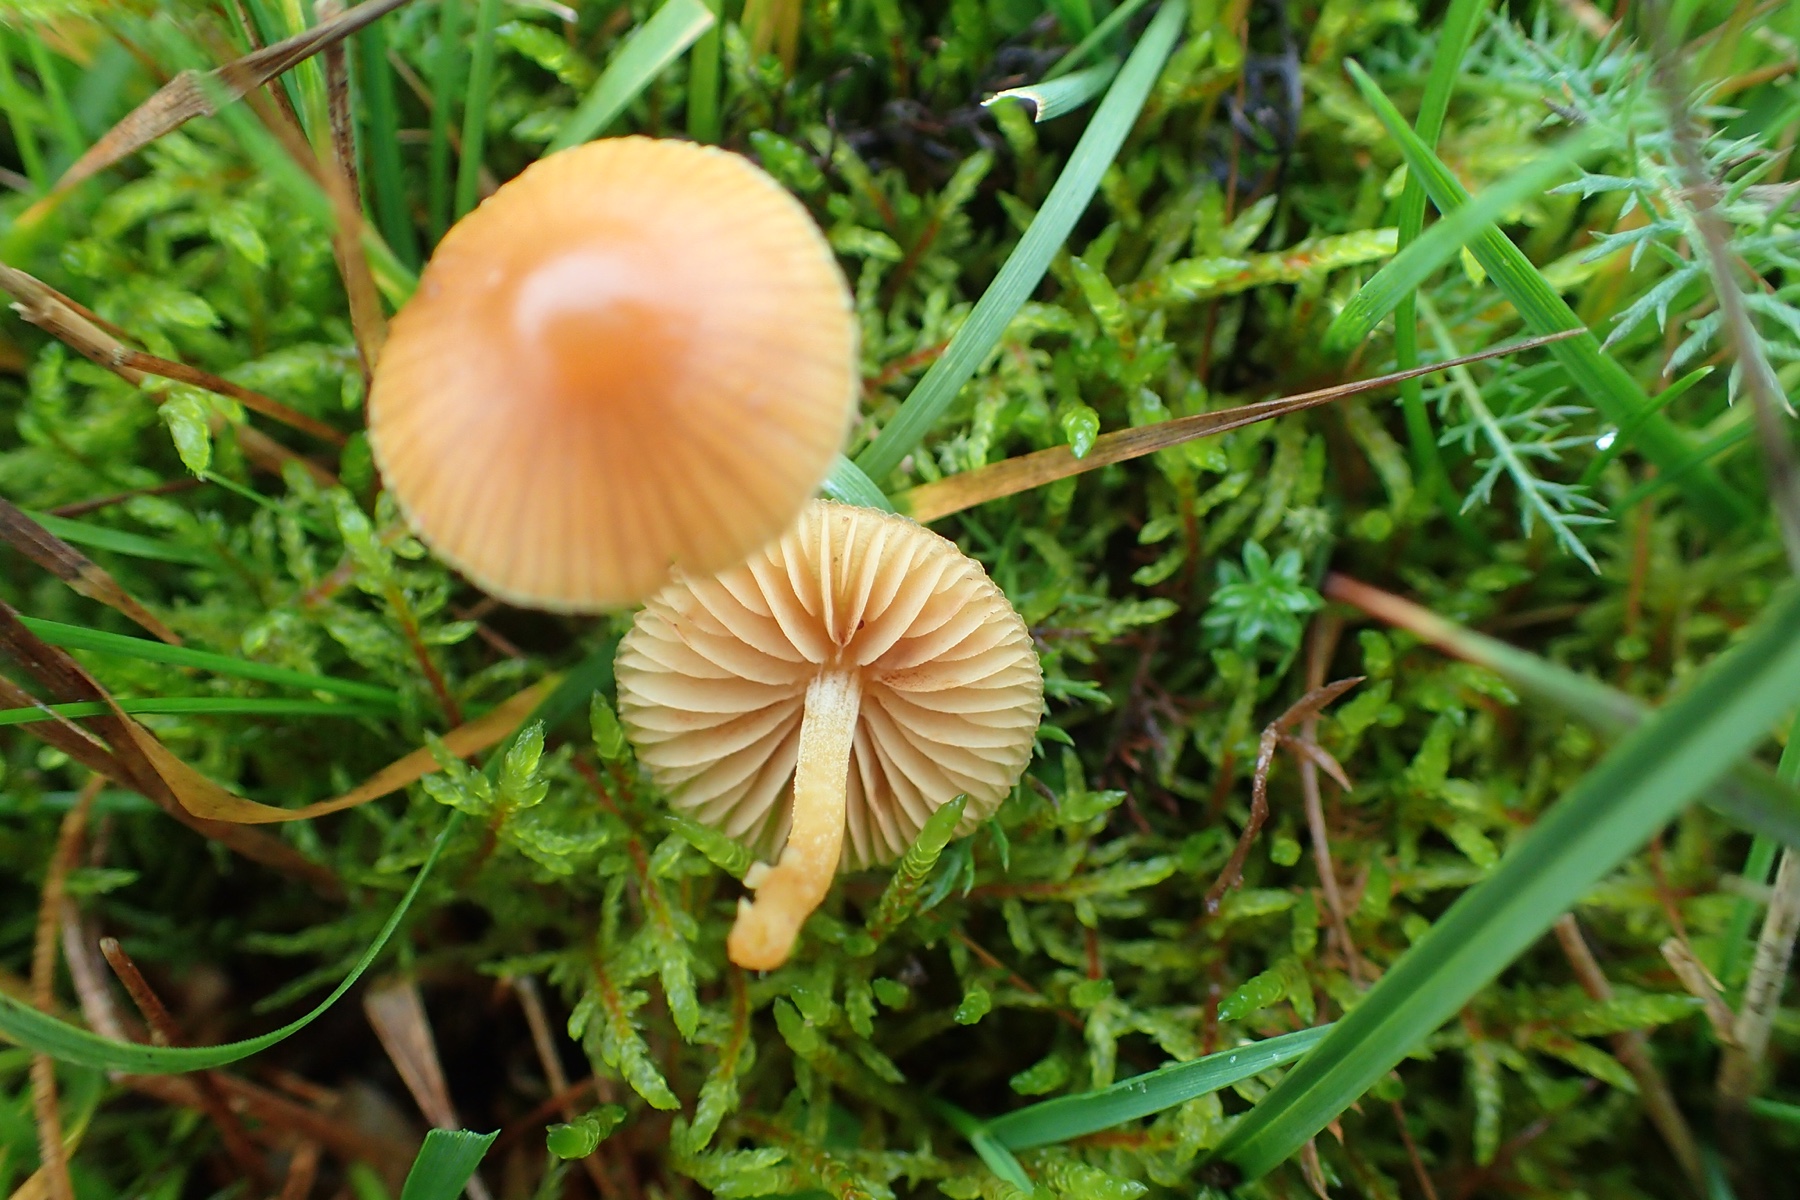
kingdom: Fungi
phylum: Basidiomycota
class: Agaricomycetes
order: Agaricales
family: Hymenogastraceae
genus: Galerina
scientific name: Galerina
